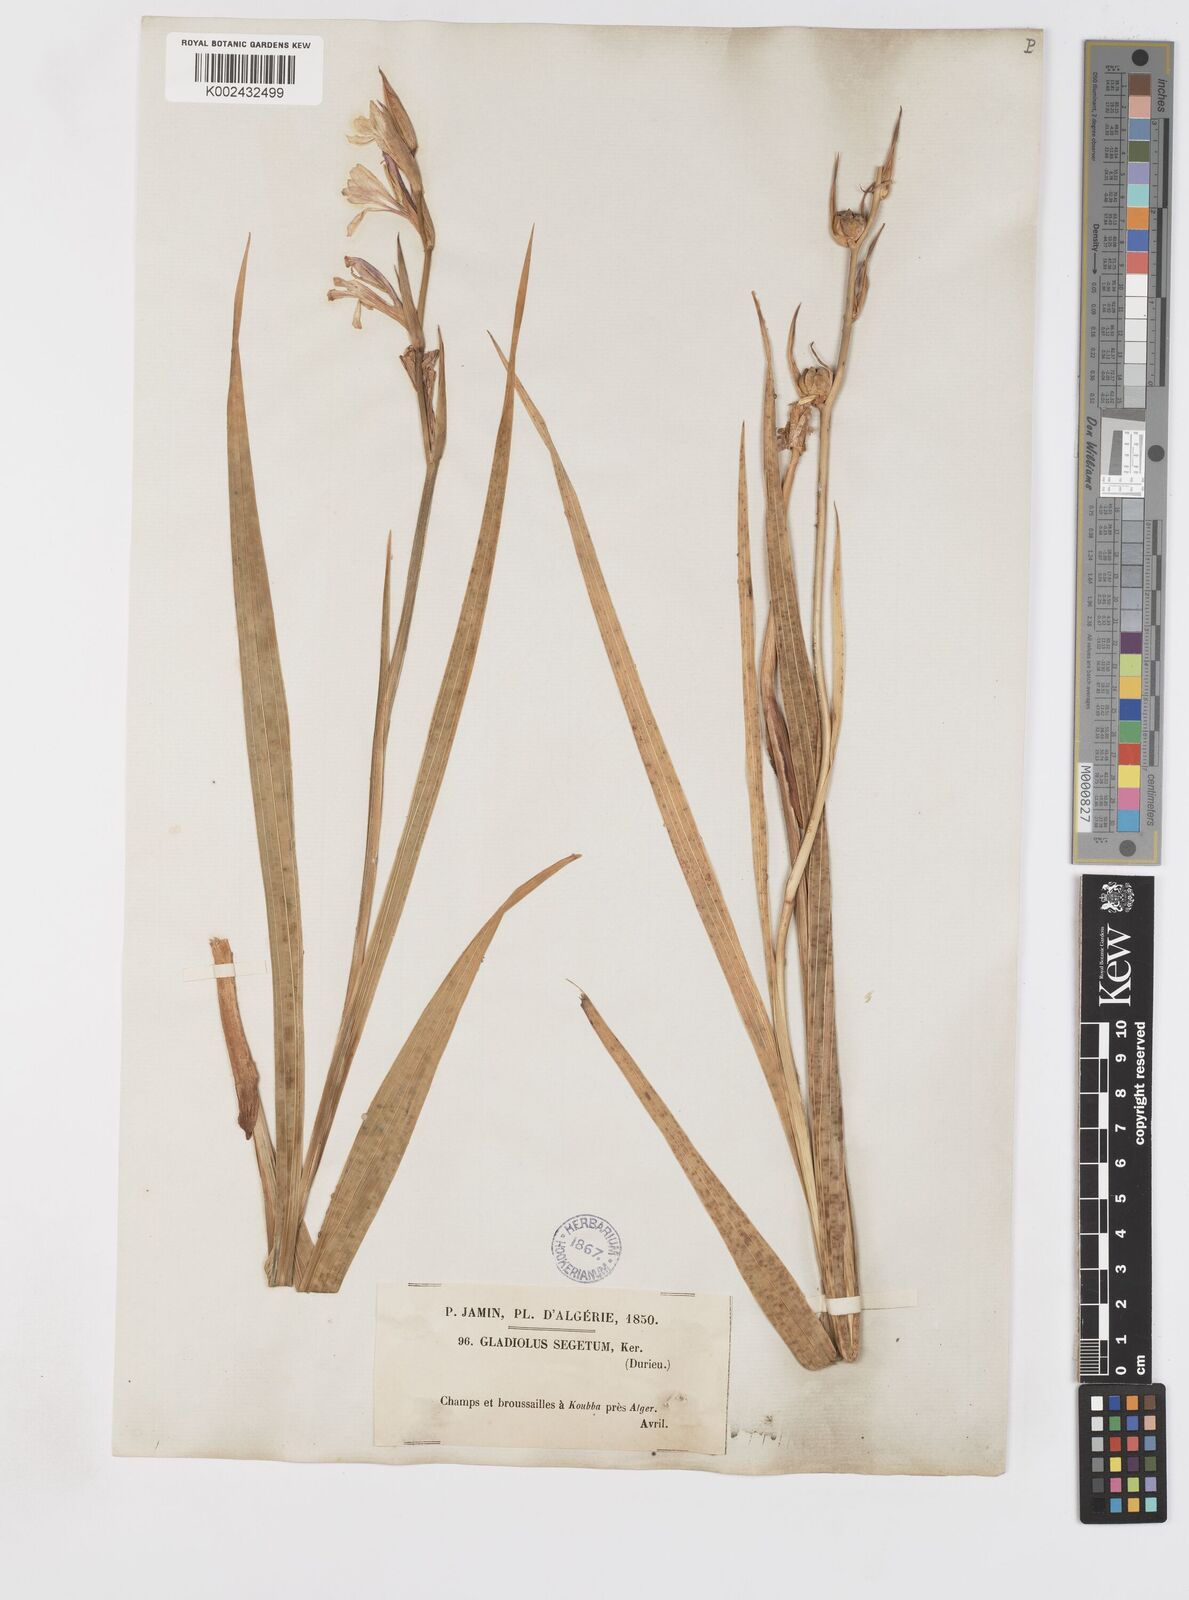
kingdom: Plantae
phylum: Tracheophyta
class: Liliopsida
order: Asparagales
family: Iridaceae
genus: Gladiolus
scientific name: Gladiolus italicus
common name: Field gladiolus
